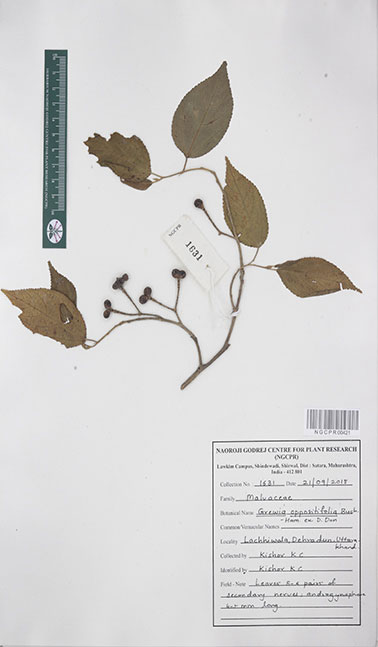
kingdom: Plantae
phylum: Tracheophyta
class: Magnoliopsida
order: Malvales
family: Malvaceae
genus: Grewia
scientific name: Grewia oppositifolia
